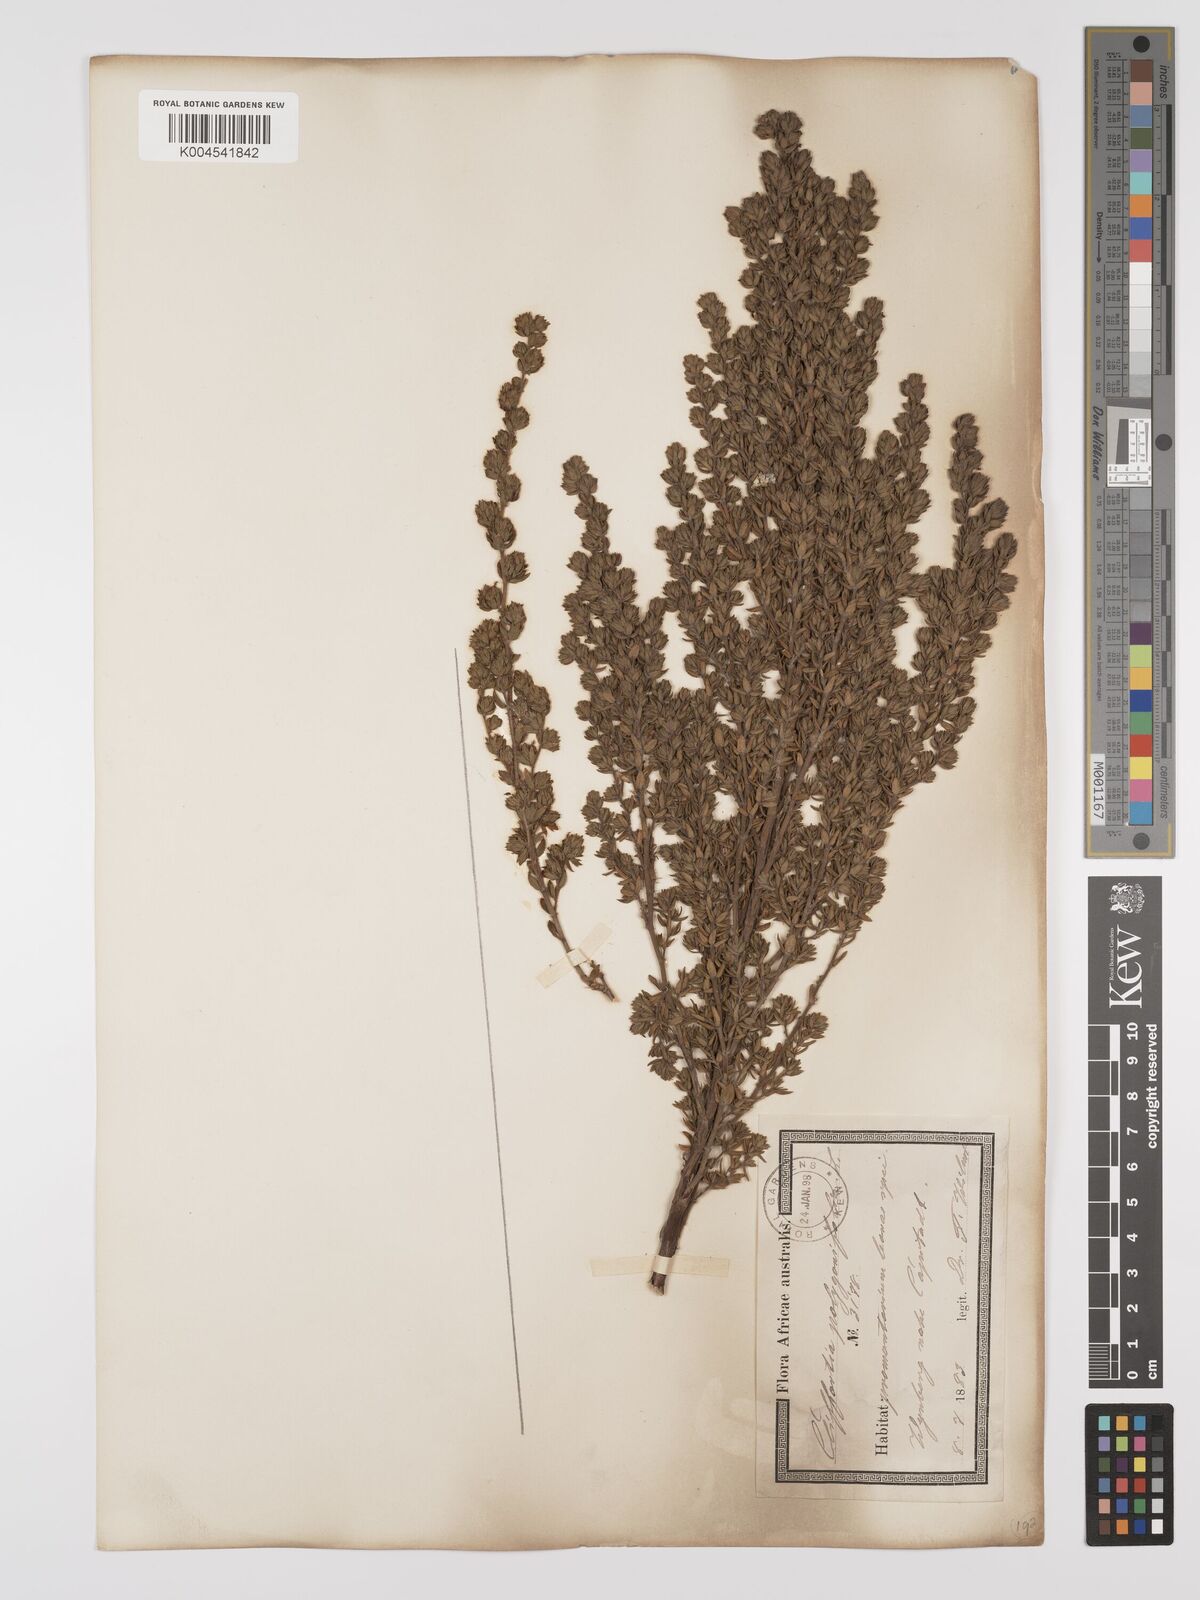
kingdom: Plantae
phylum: Tracheophyta
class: Magnoliopsida
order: Rosales
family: Rosaceae
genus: Cliffortia
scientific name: Cliffortia polygonifolia
